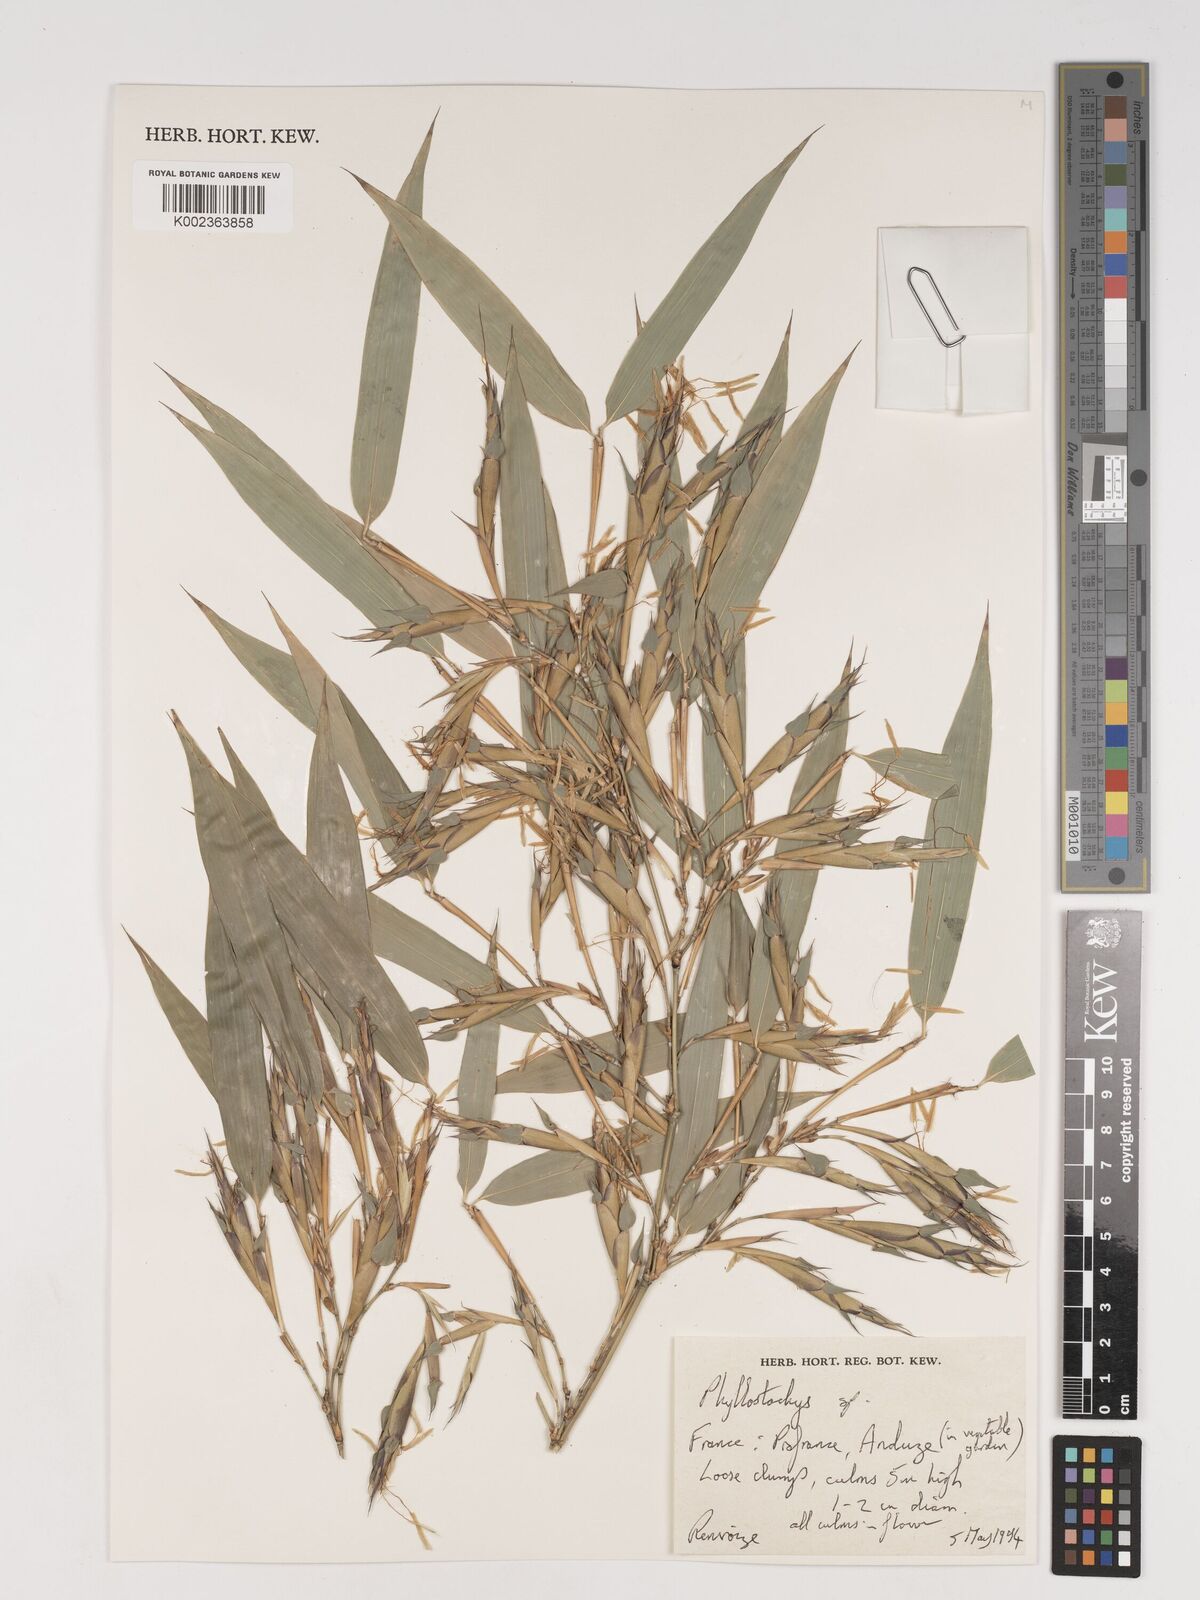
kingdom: Plantae
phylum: Tracheophyta
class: Liliopsida
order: Poales
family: Poaceae
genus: Phyllostachys
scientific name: Phyllostachys
